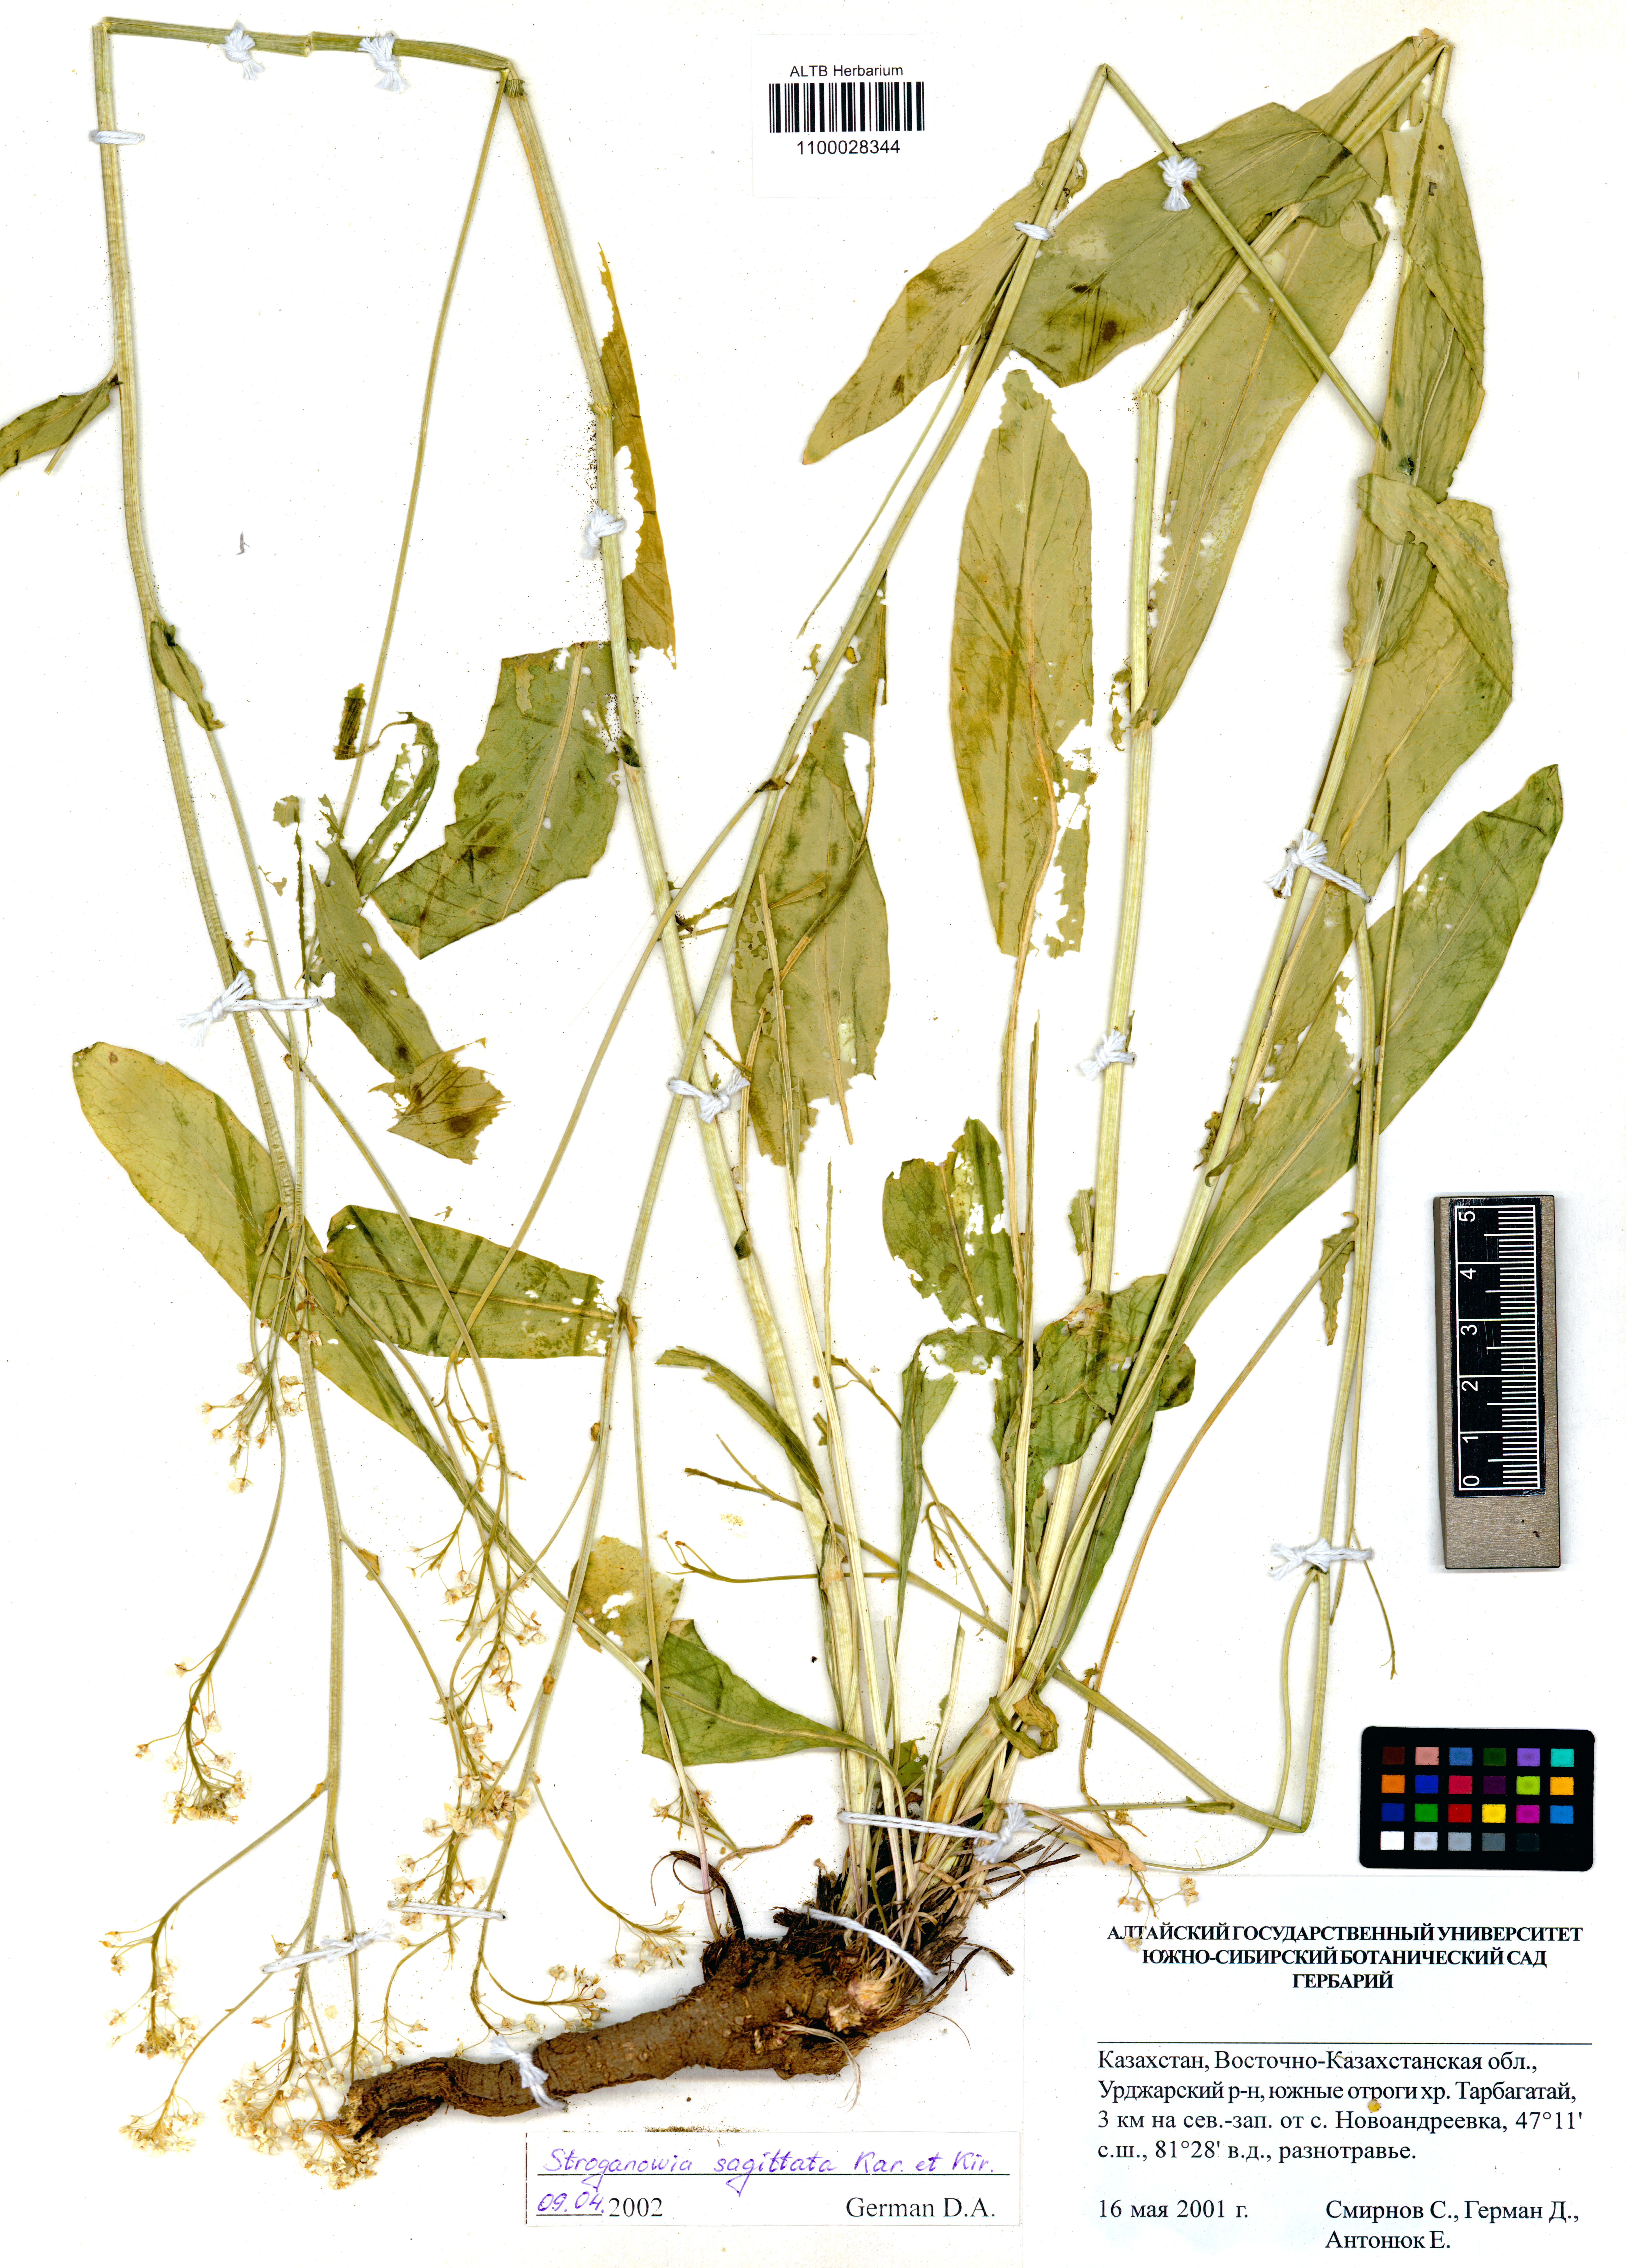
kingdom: Plantae
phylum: Tracheophyta
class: Magnoliopsida
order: Brassicales
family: Brassicaceae
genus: Lepidium
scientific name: Lepidium sagittatum
